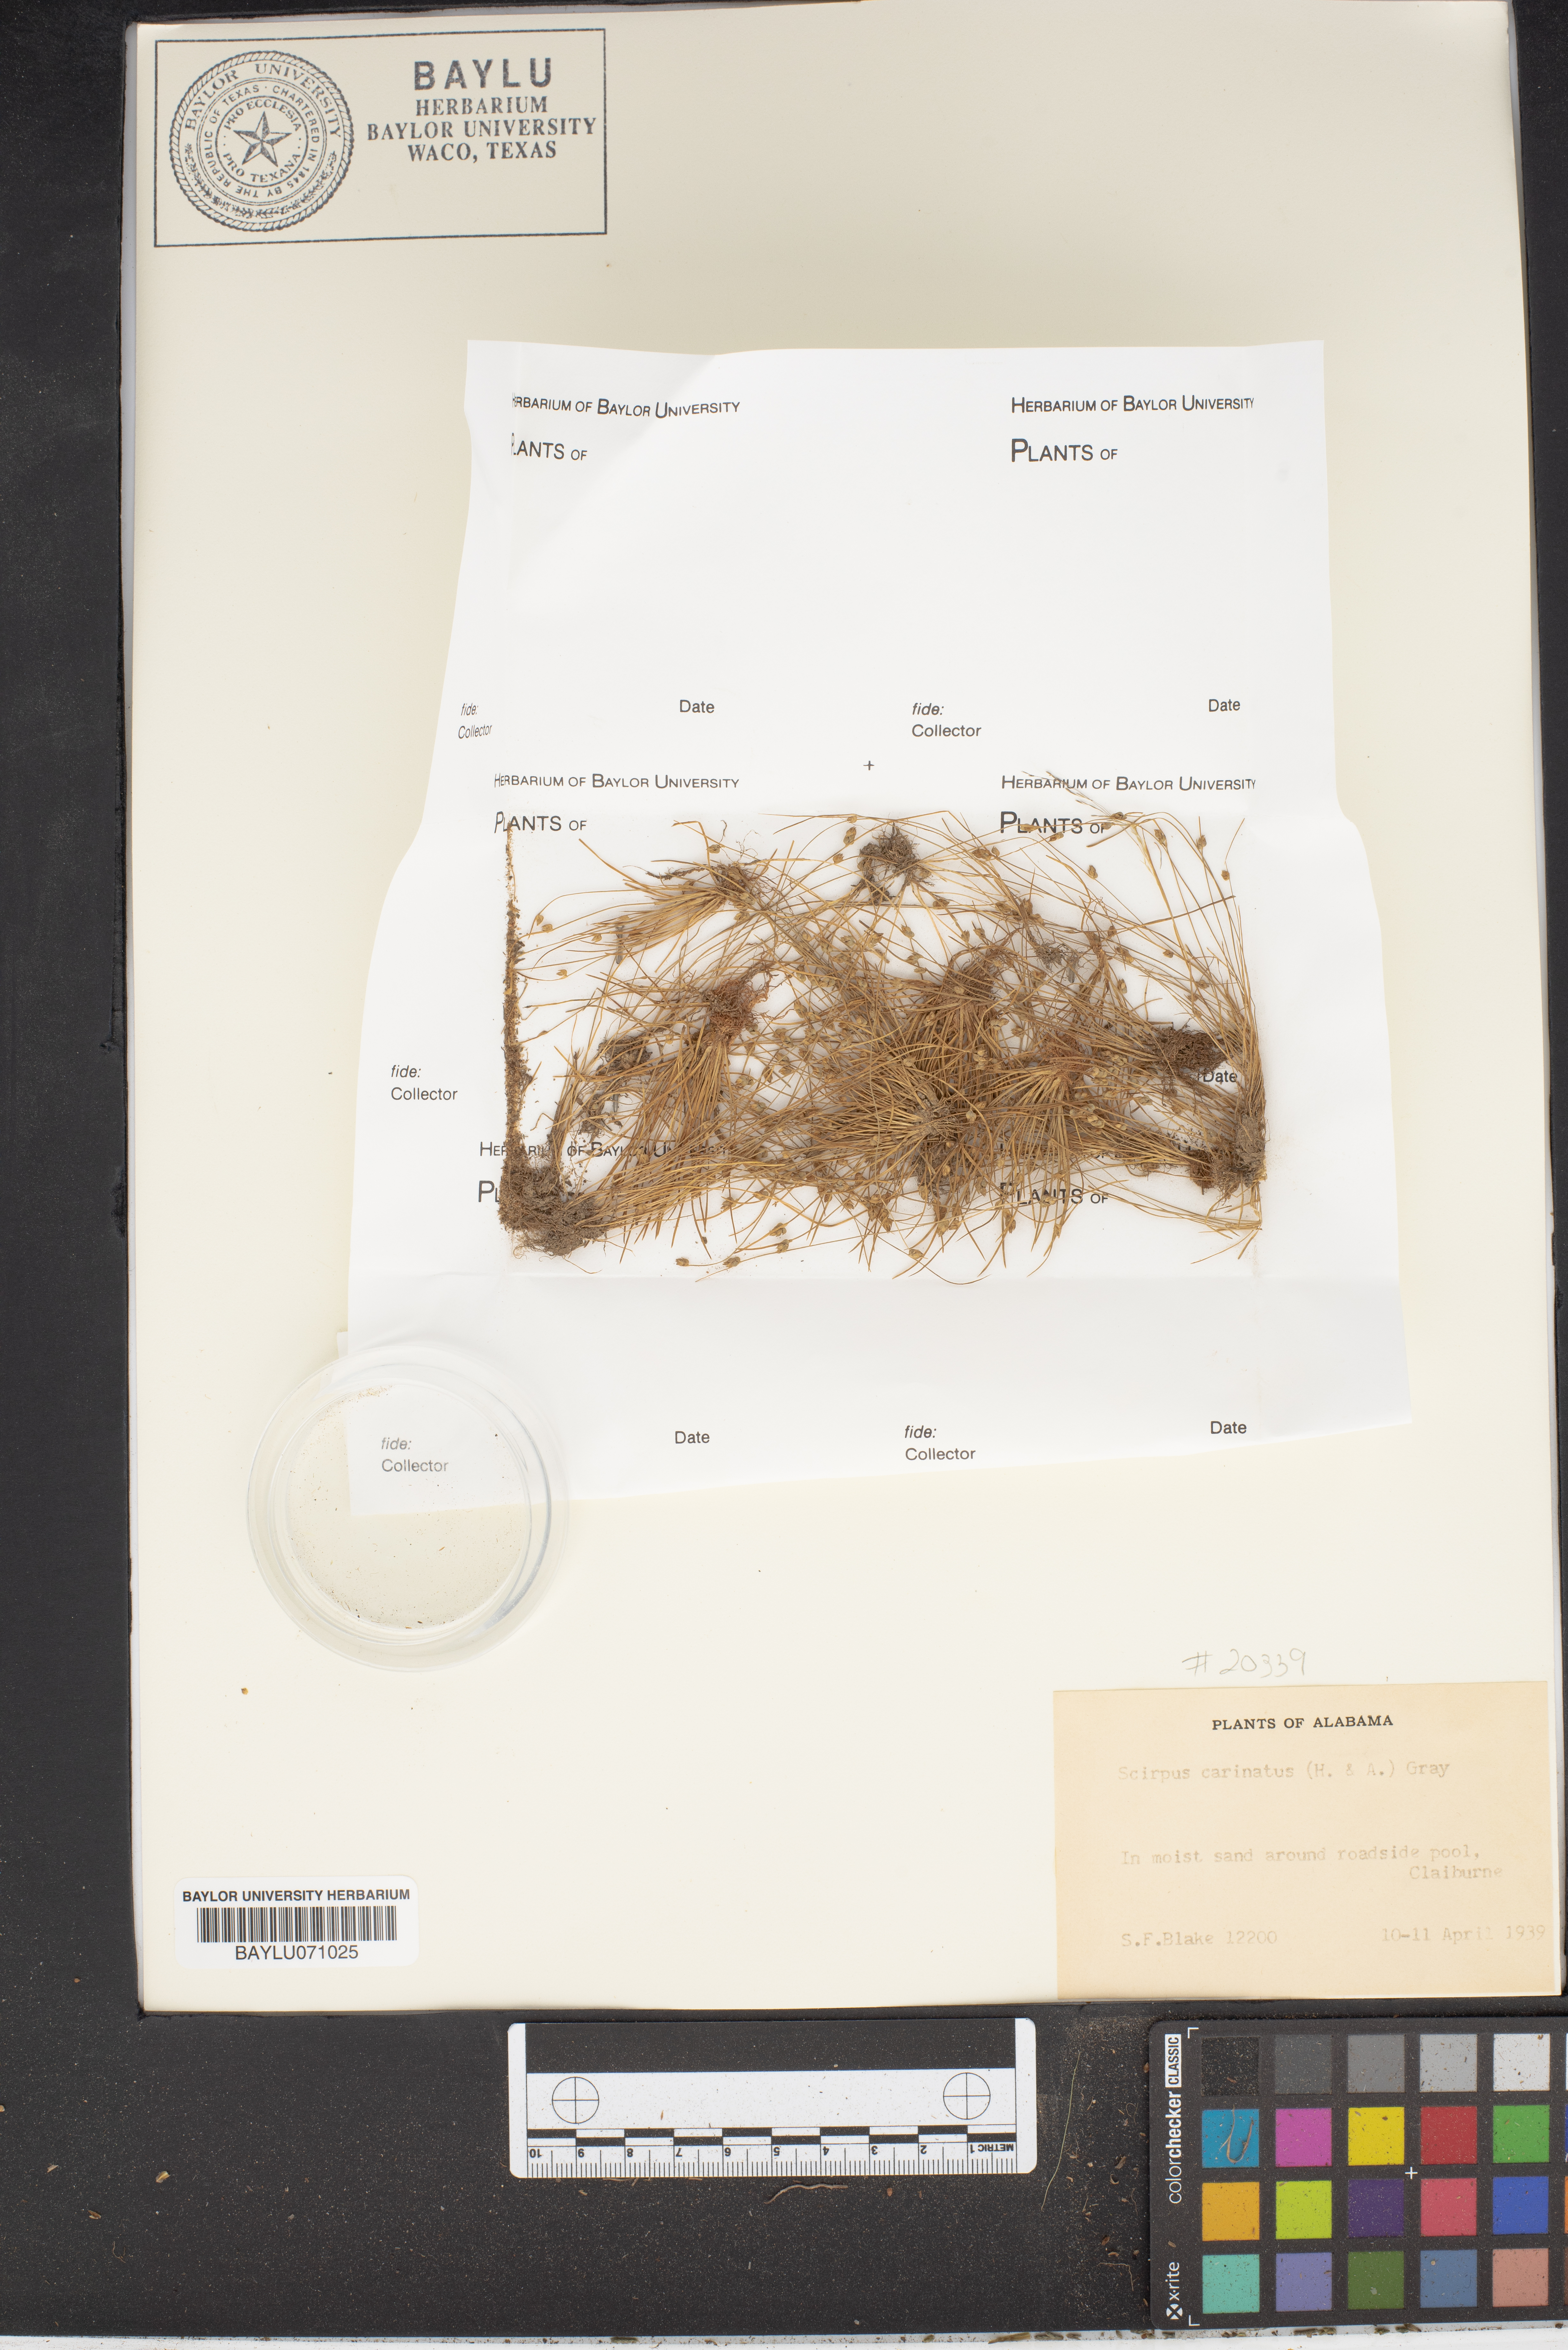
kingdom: Plantae
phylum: Tracheophyta
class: Liliopsida
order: Poales
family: Cyperaceae
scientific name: Cyperaceae
